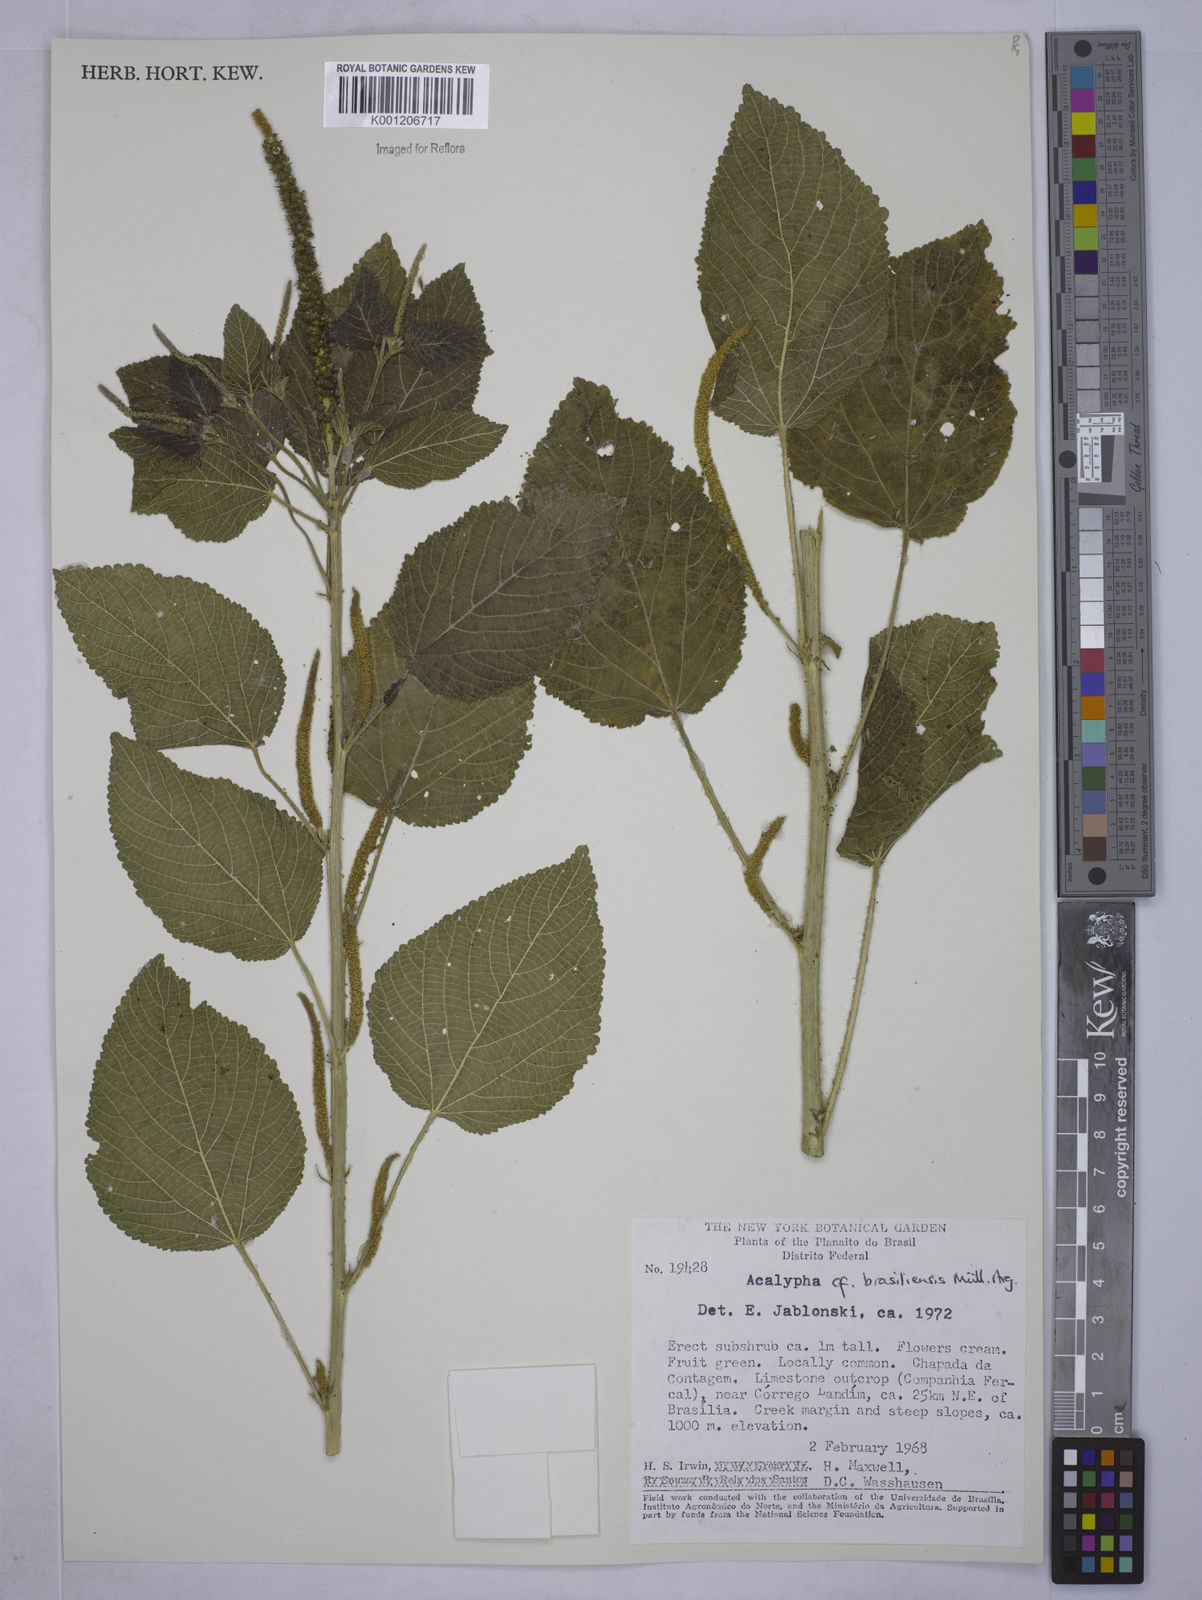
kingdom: Plantae
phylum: Tracheophyta
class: Magnoliopsida
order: Malpighiales
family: Euphorbiaceae
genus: Acalypha
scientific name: Acalypha
